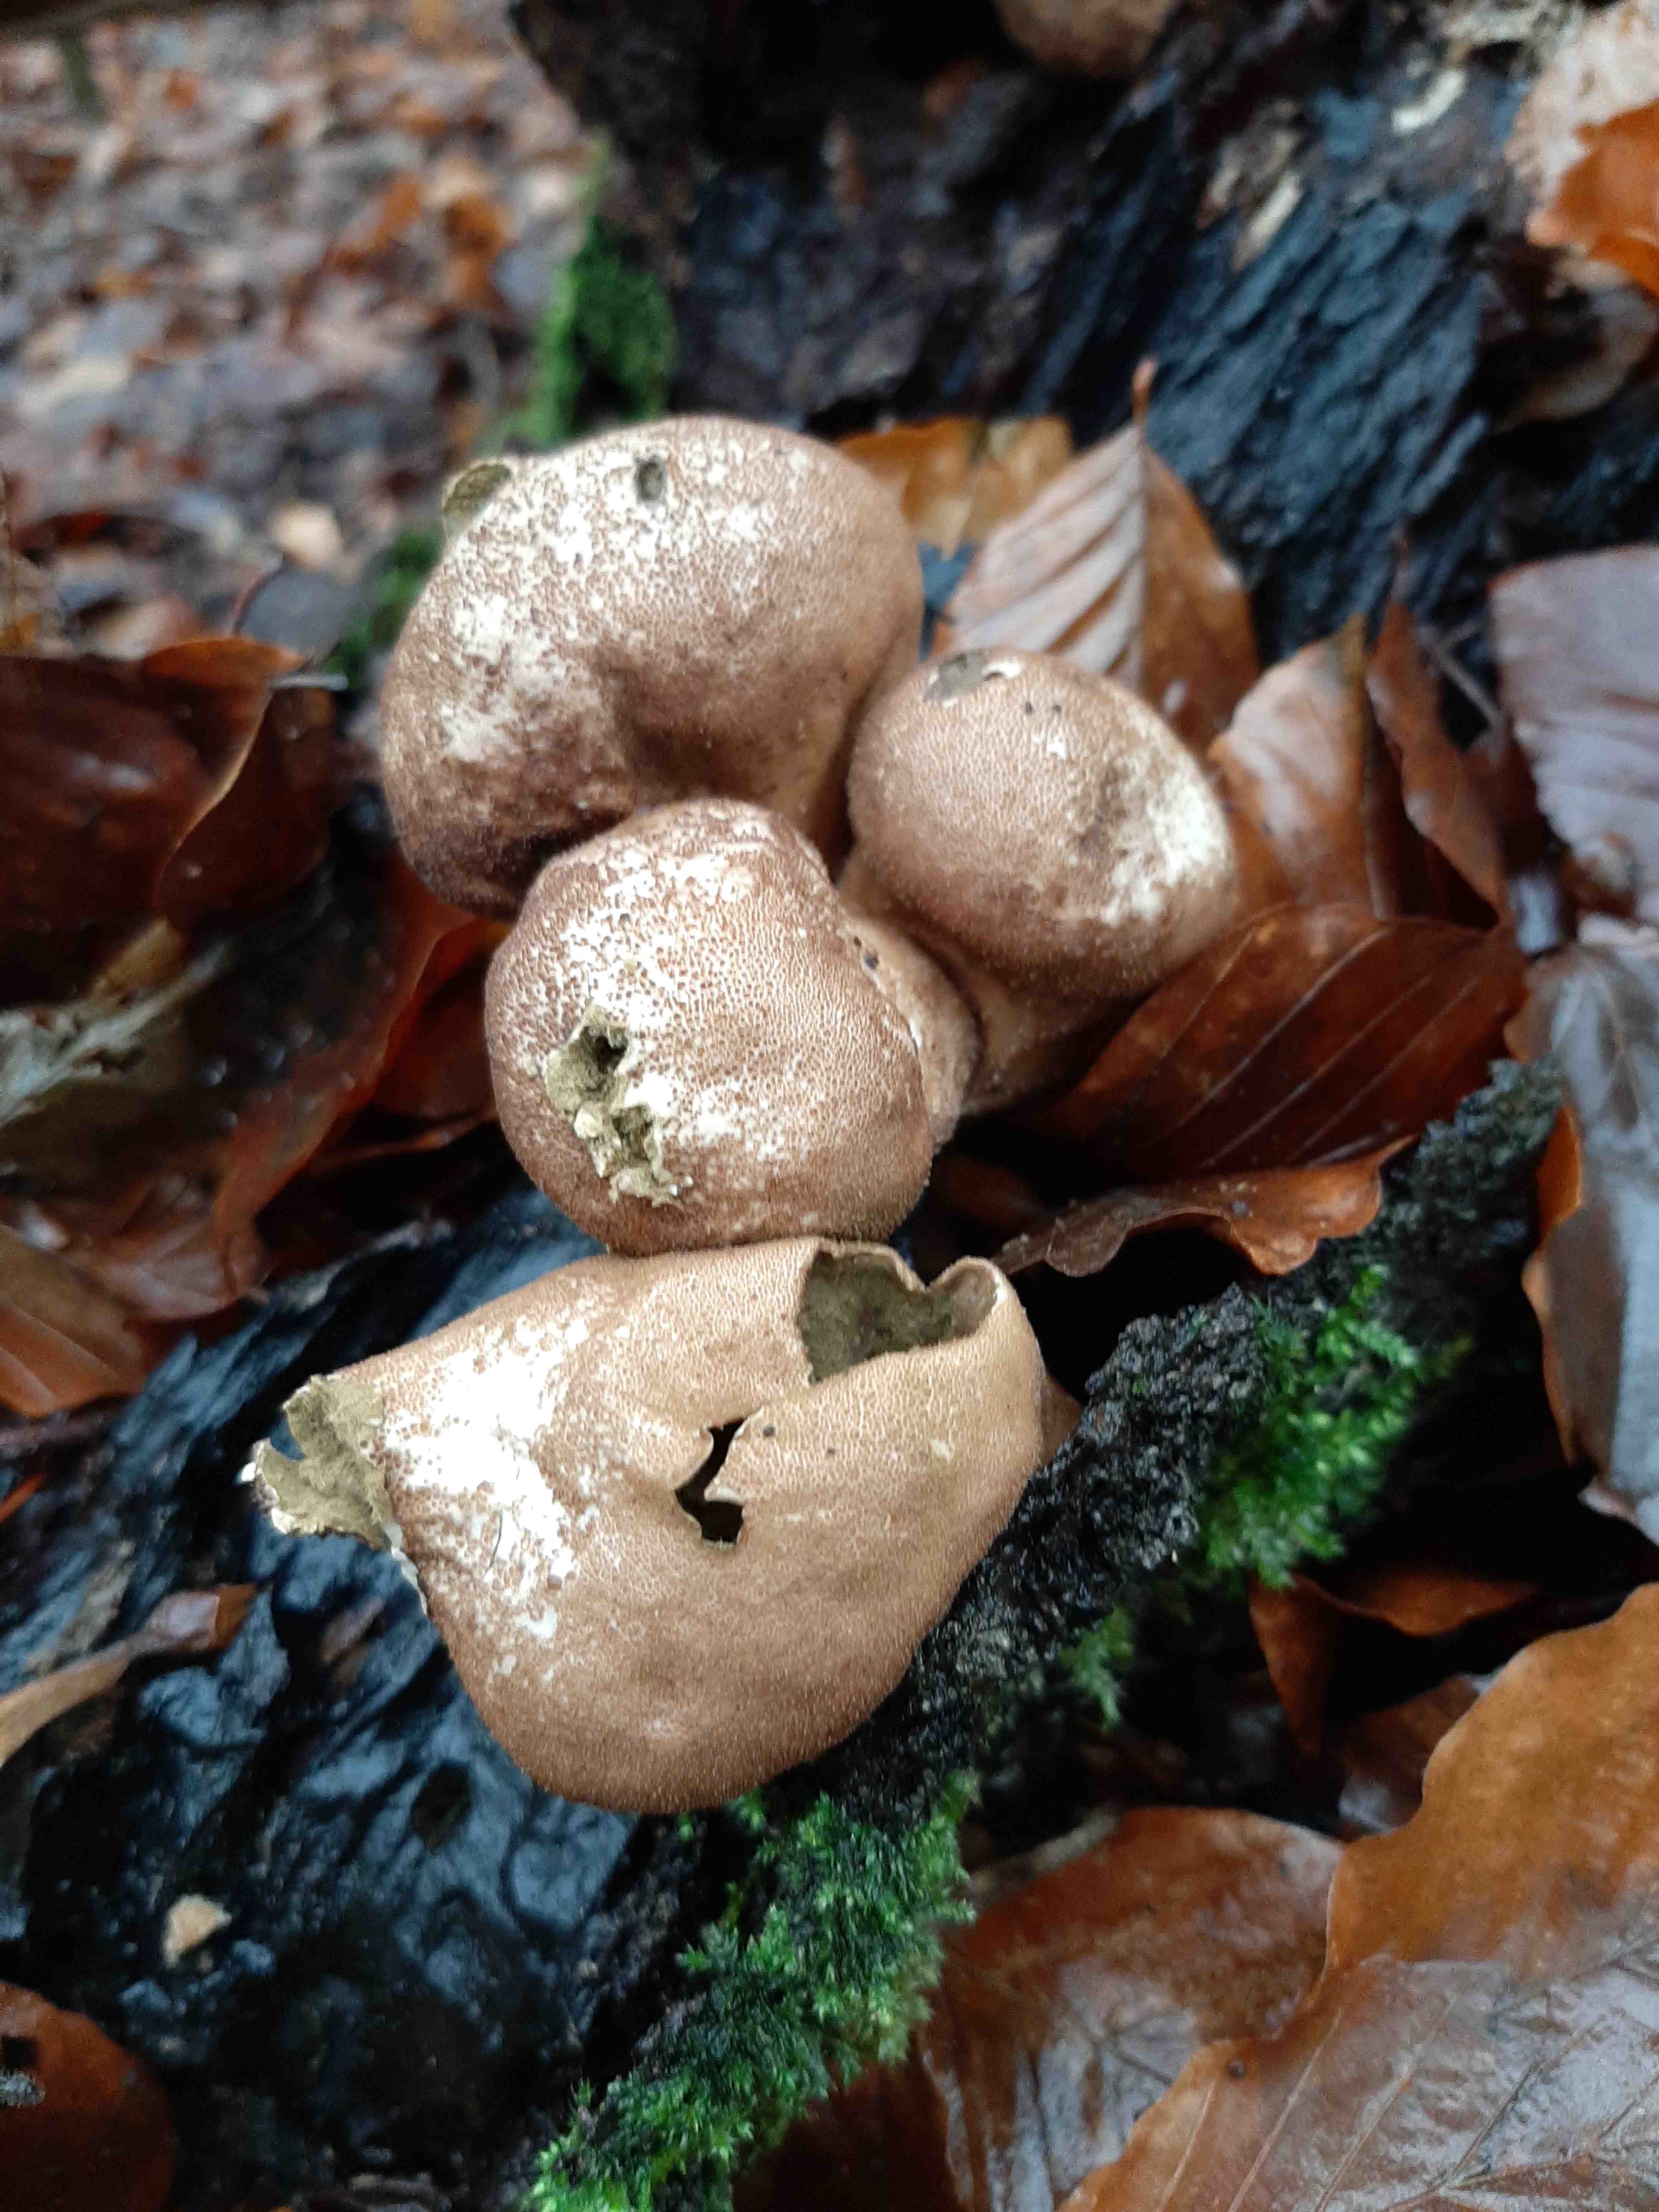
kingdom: Fungi
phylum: Basidiomycota
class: Agaricomycetes
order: Agaricales
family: Lycoperdaceae
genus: Apioperdon
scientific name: Apioperdon pyriforme
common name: pære-støvbold
